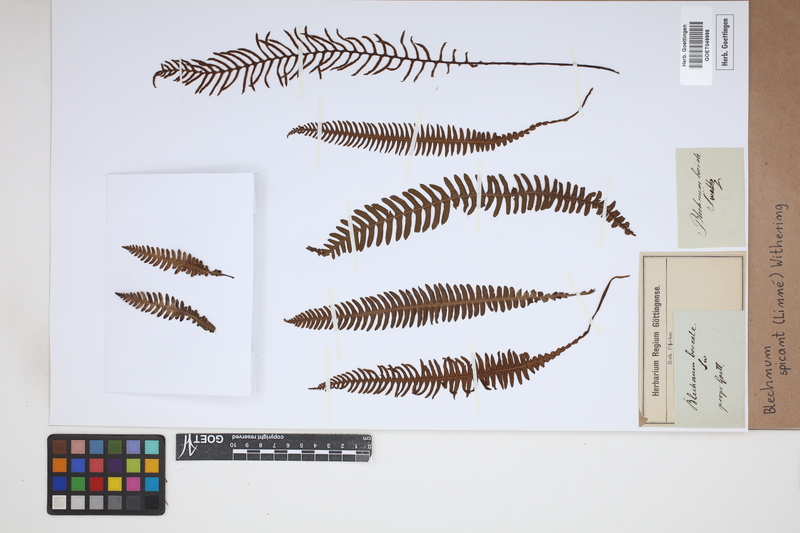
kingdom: Plantae
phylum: Tracheophyta
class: Polypodiopsida
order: Polypodiales
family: Blechnaceae
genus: Struthiopteris
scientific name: Struthiopteris spicant
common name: Deer fern
